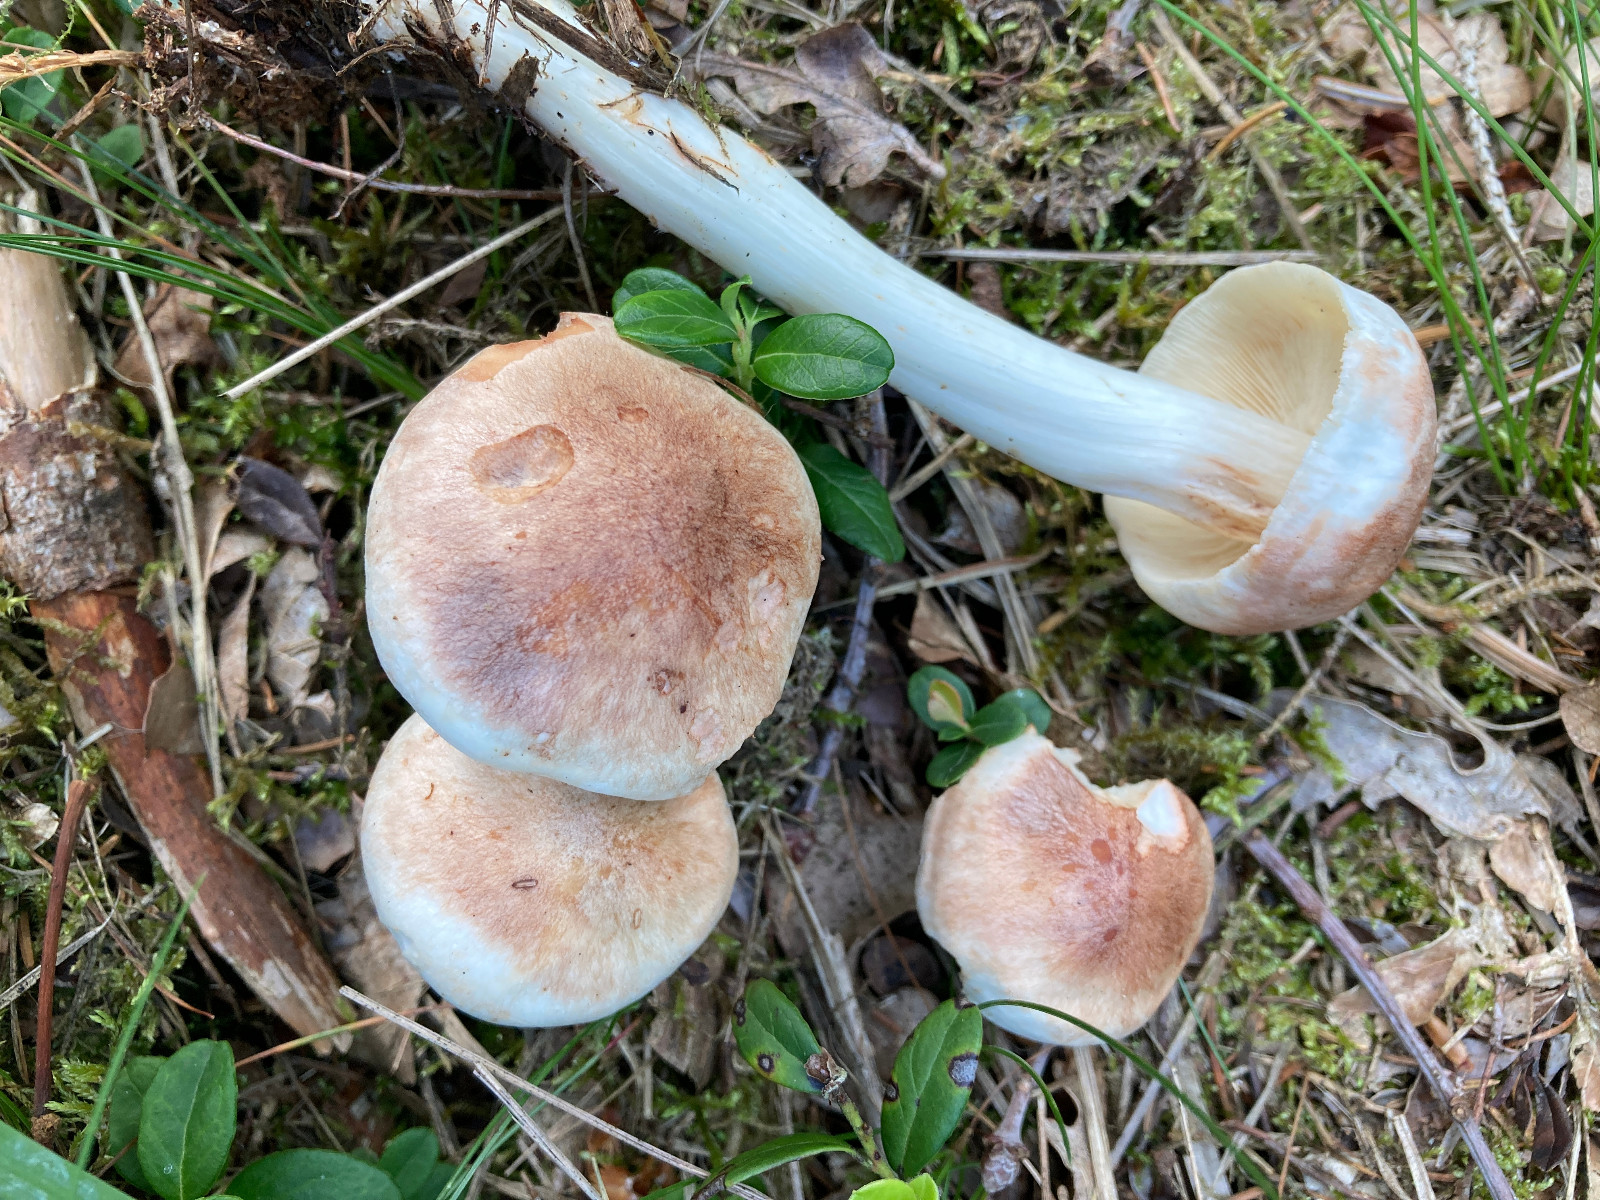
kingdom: Fungi
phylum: Basidiomycota
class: Agaricomycetes
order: Agaricales
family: Omphalotaceae
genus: Rhodocollybia
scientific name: Rhodocollybia maculata
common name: plettet fladhat
